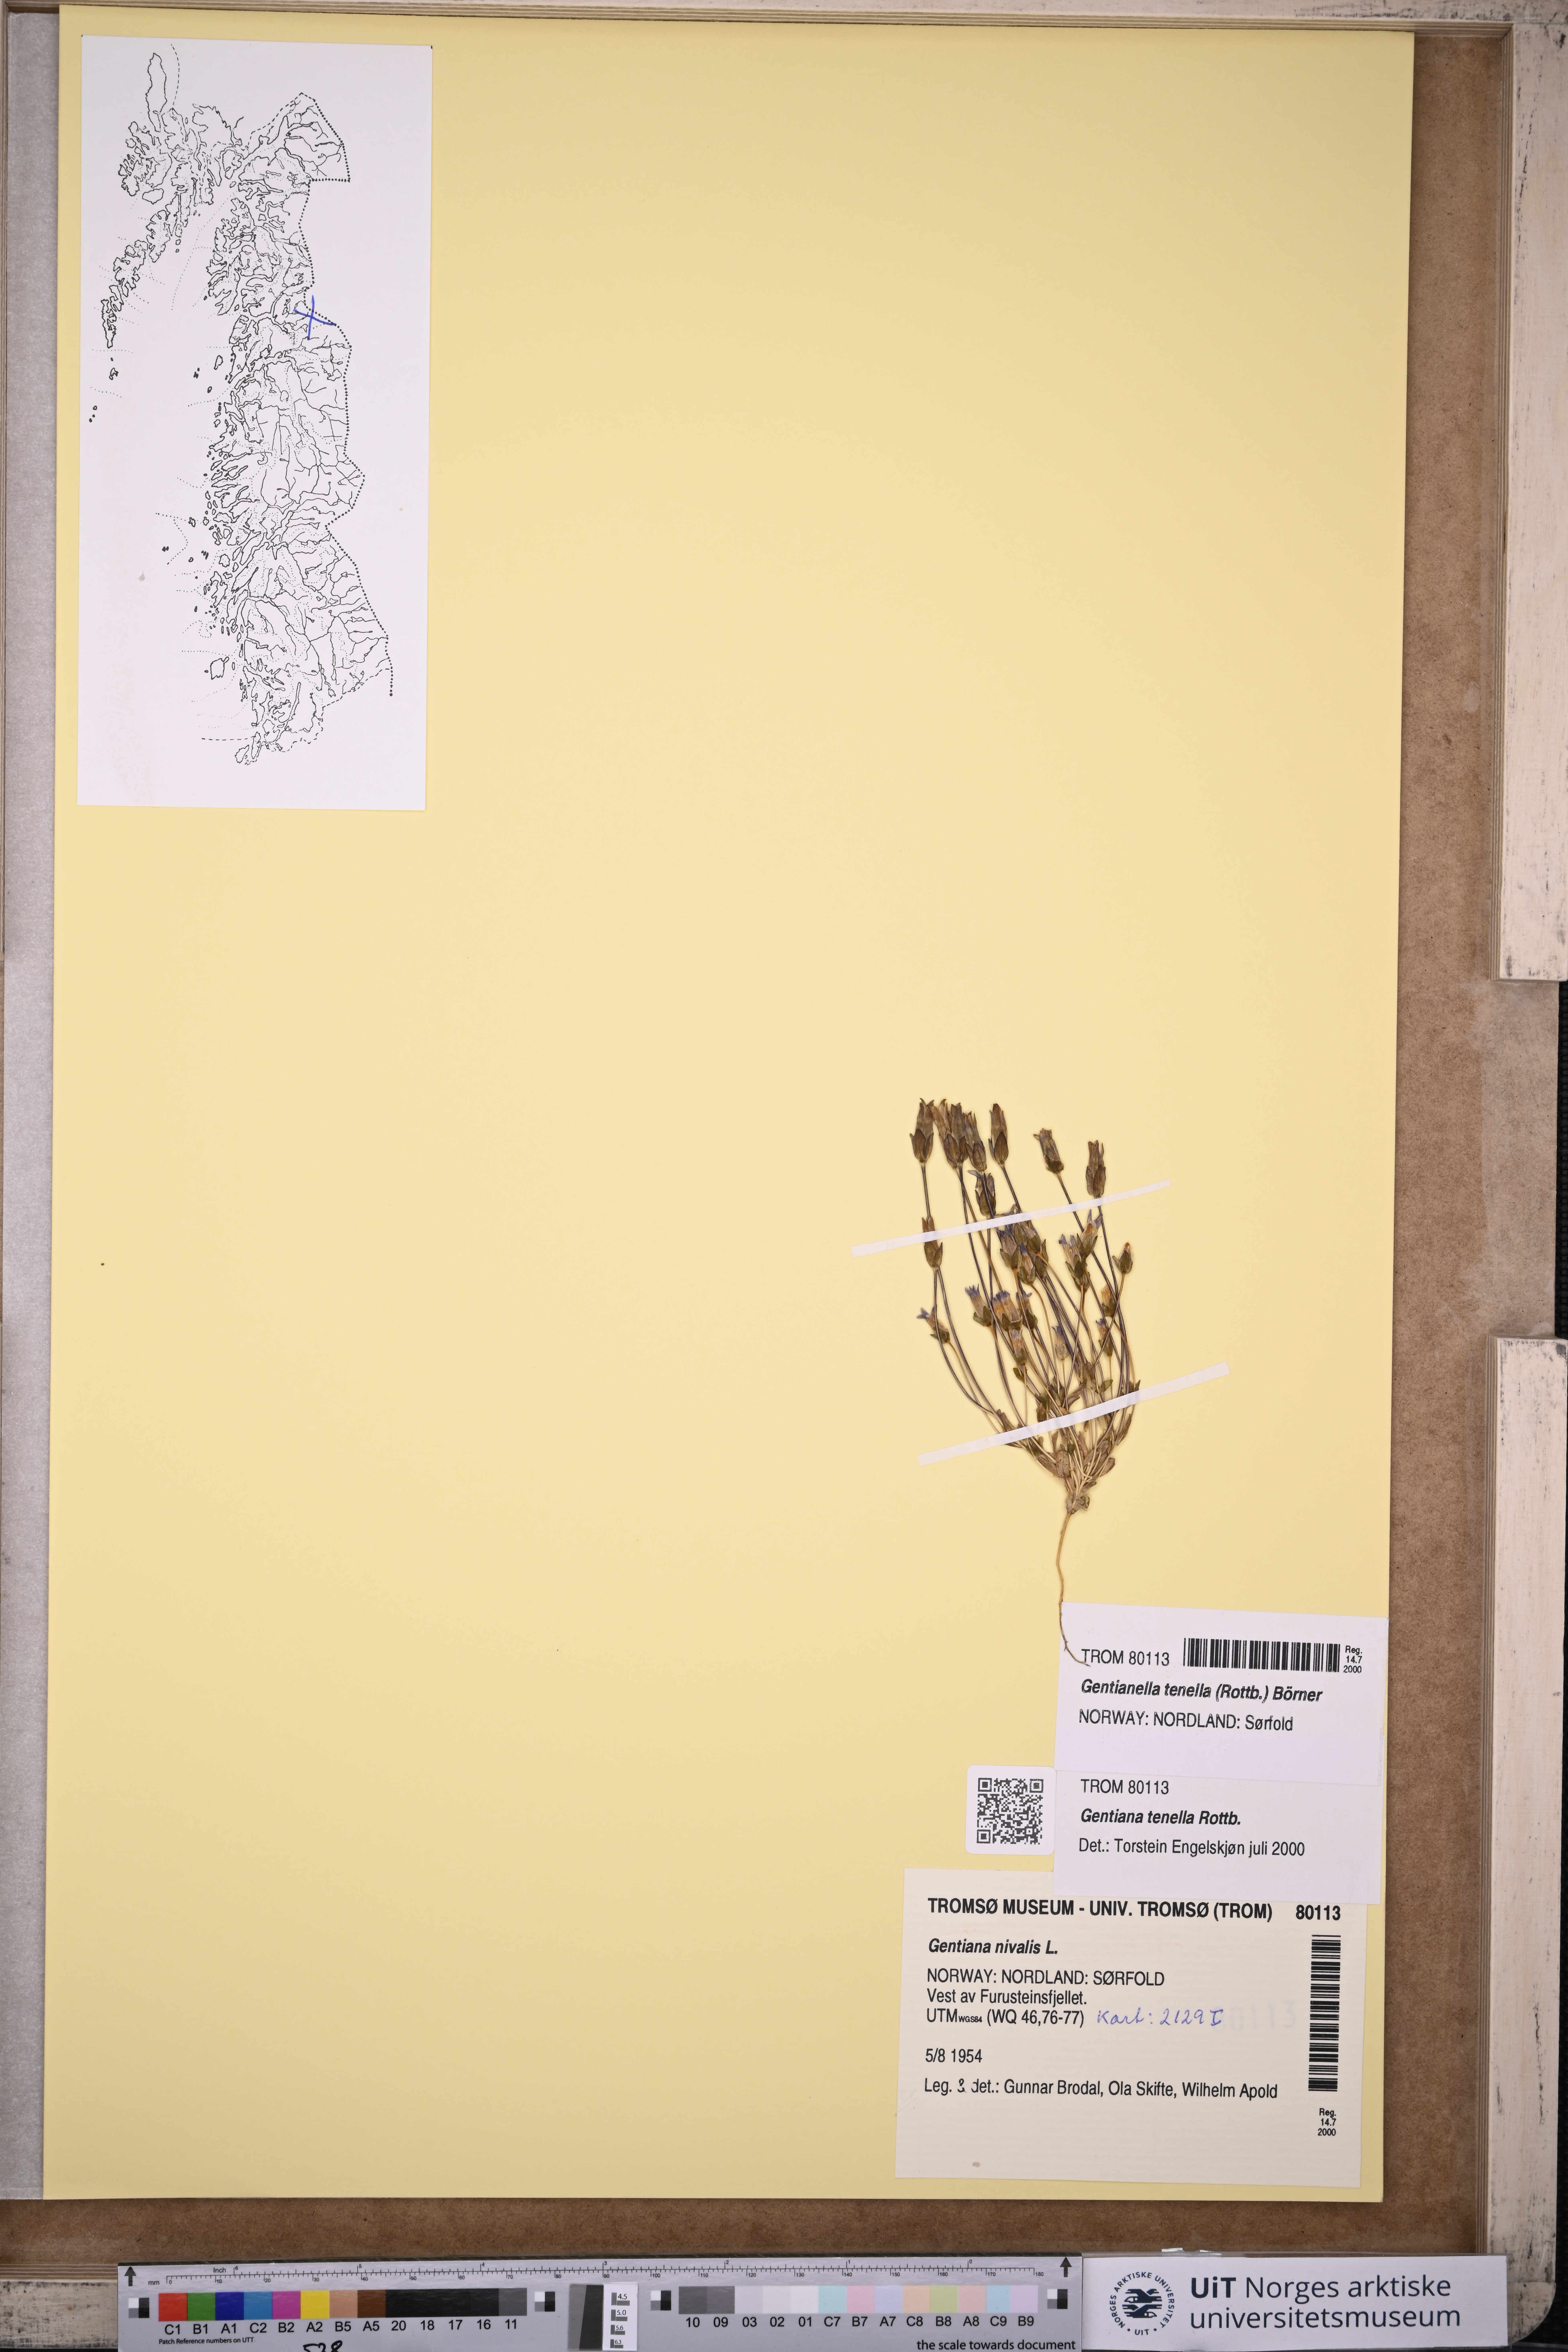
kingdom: Plantae
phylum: Tracheophyta
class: Magnoliopsida
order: Gentianales
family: Gentianaceae
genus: Comastoma
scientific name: Comastoma tenellum
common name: Dane's dwarf gentian
